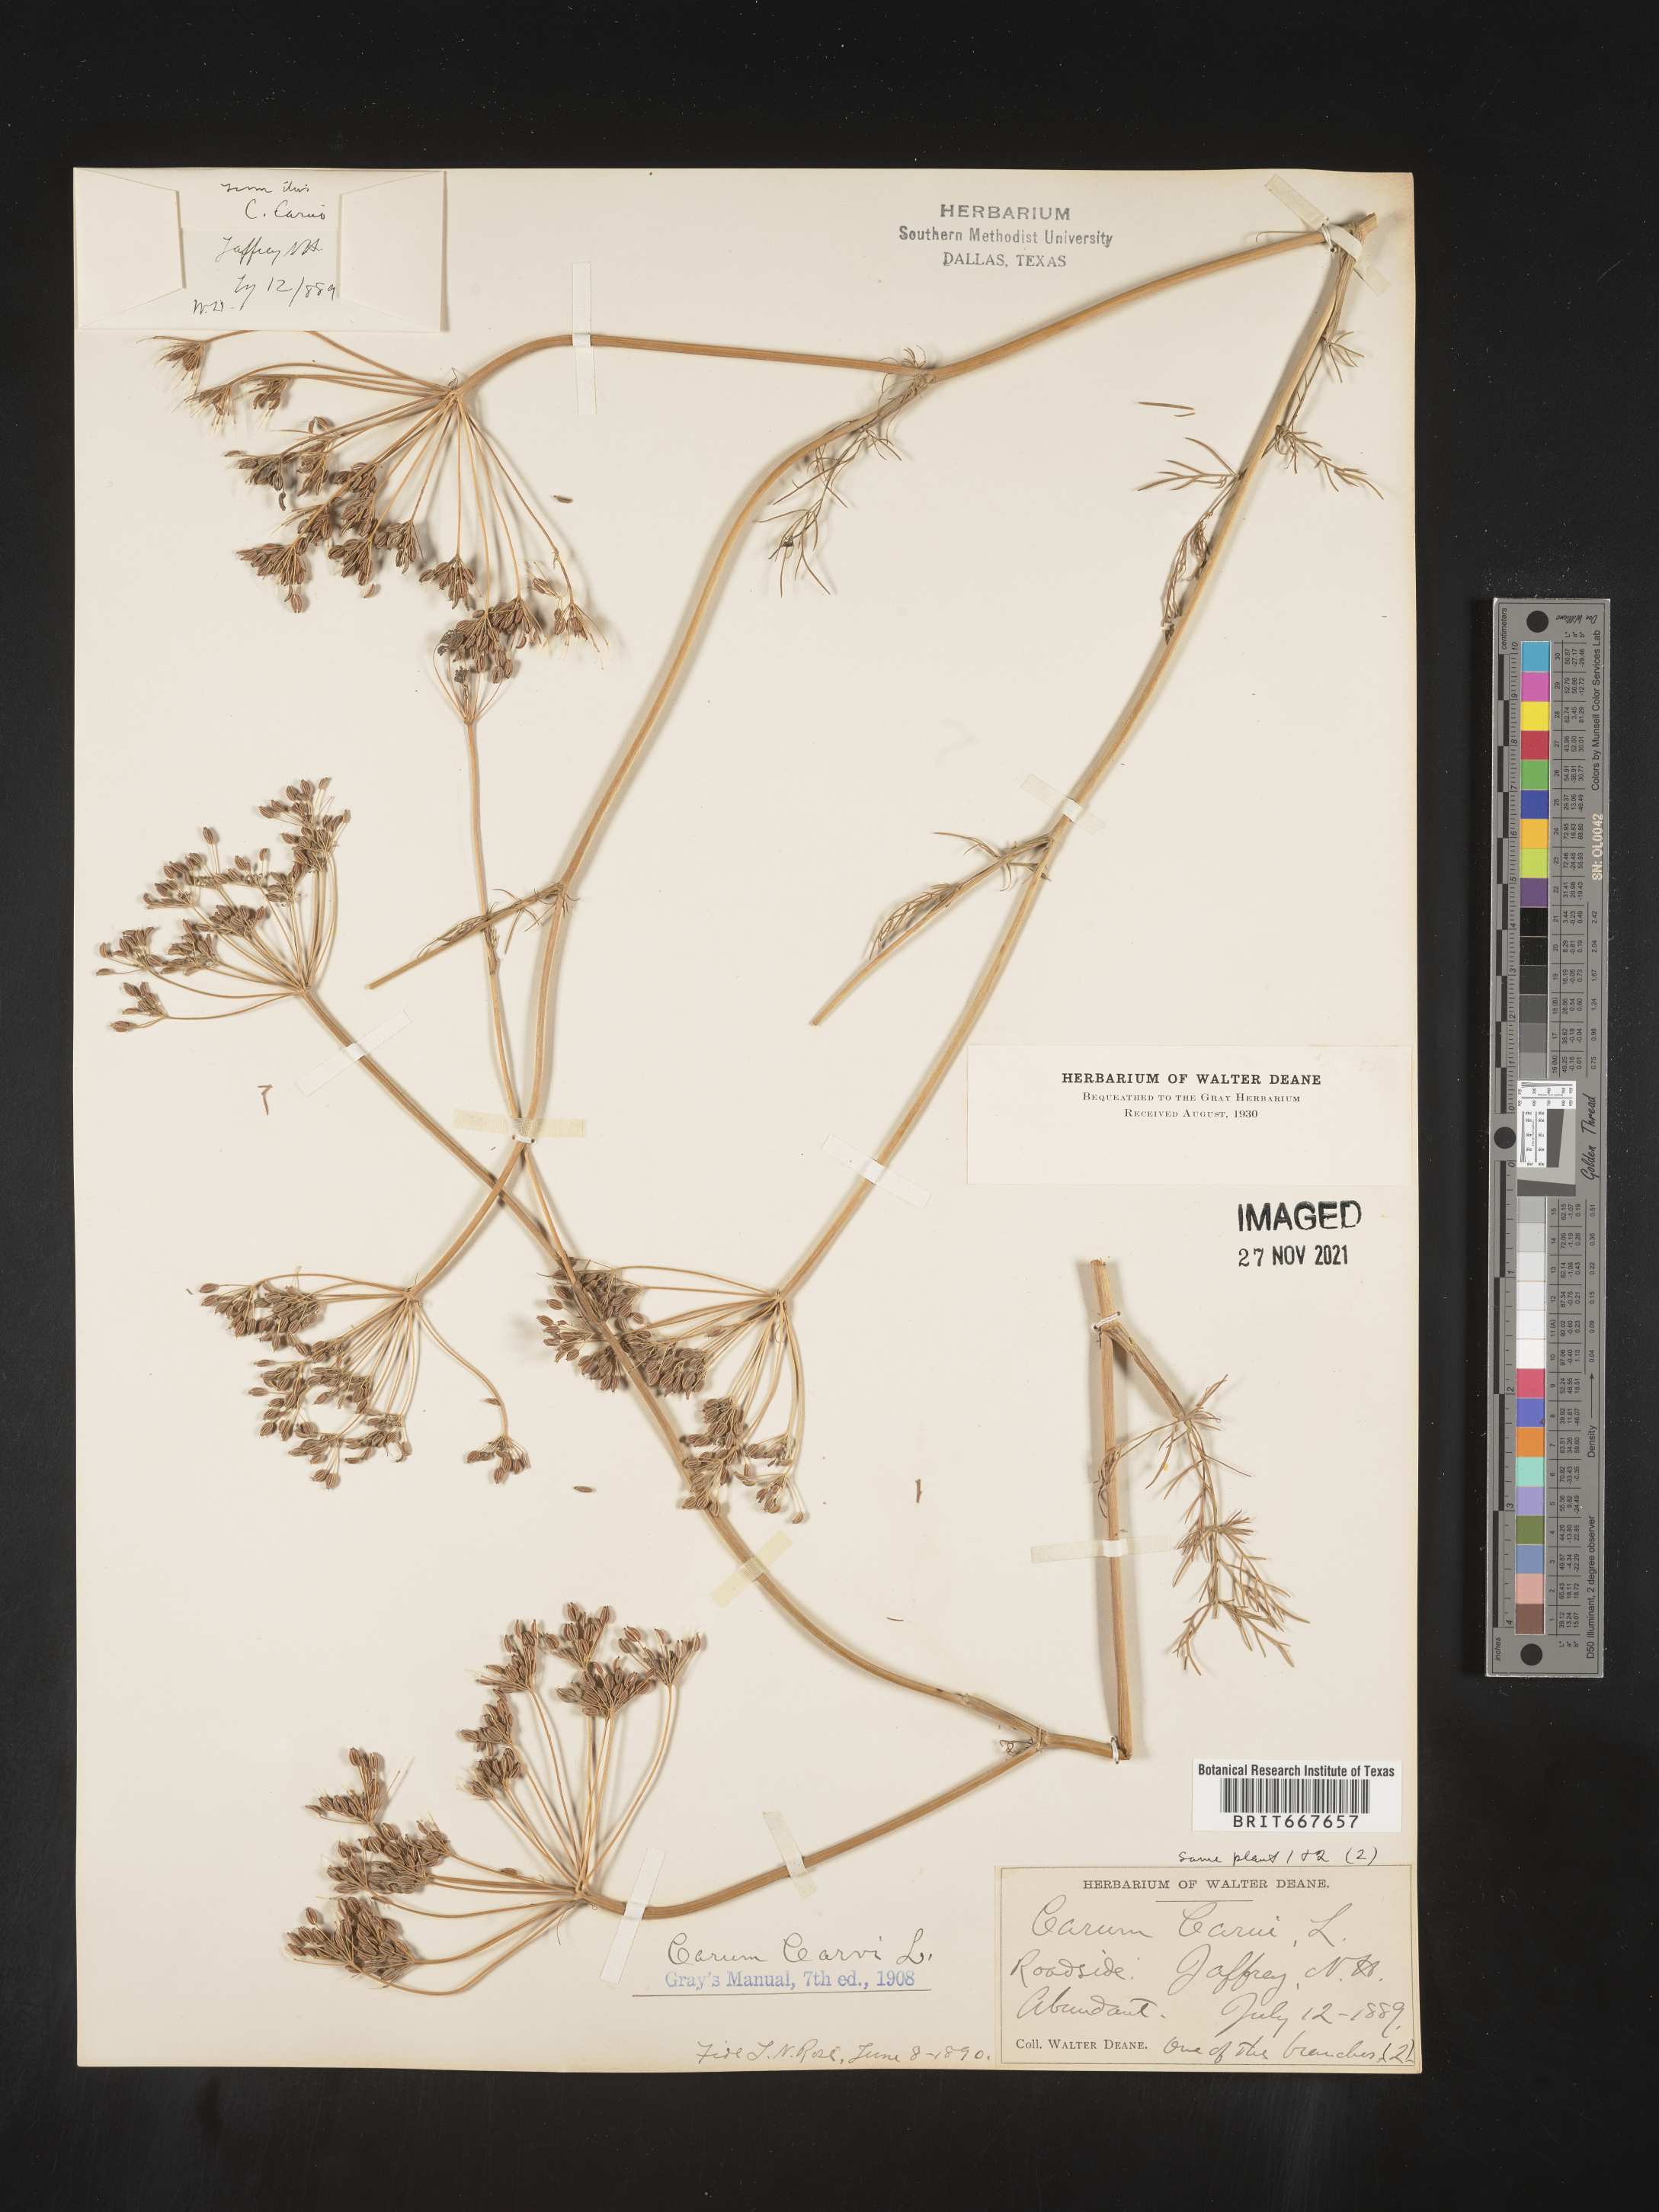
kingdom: Plantae
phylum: Tracheophyta
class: Magnoliopsida
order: Apiales
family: Apiaceae
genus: Carum
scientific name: Carum
